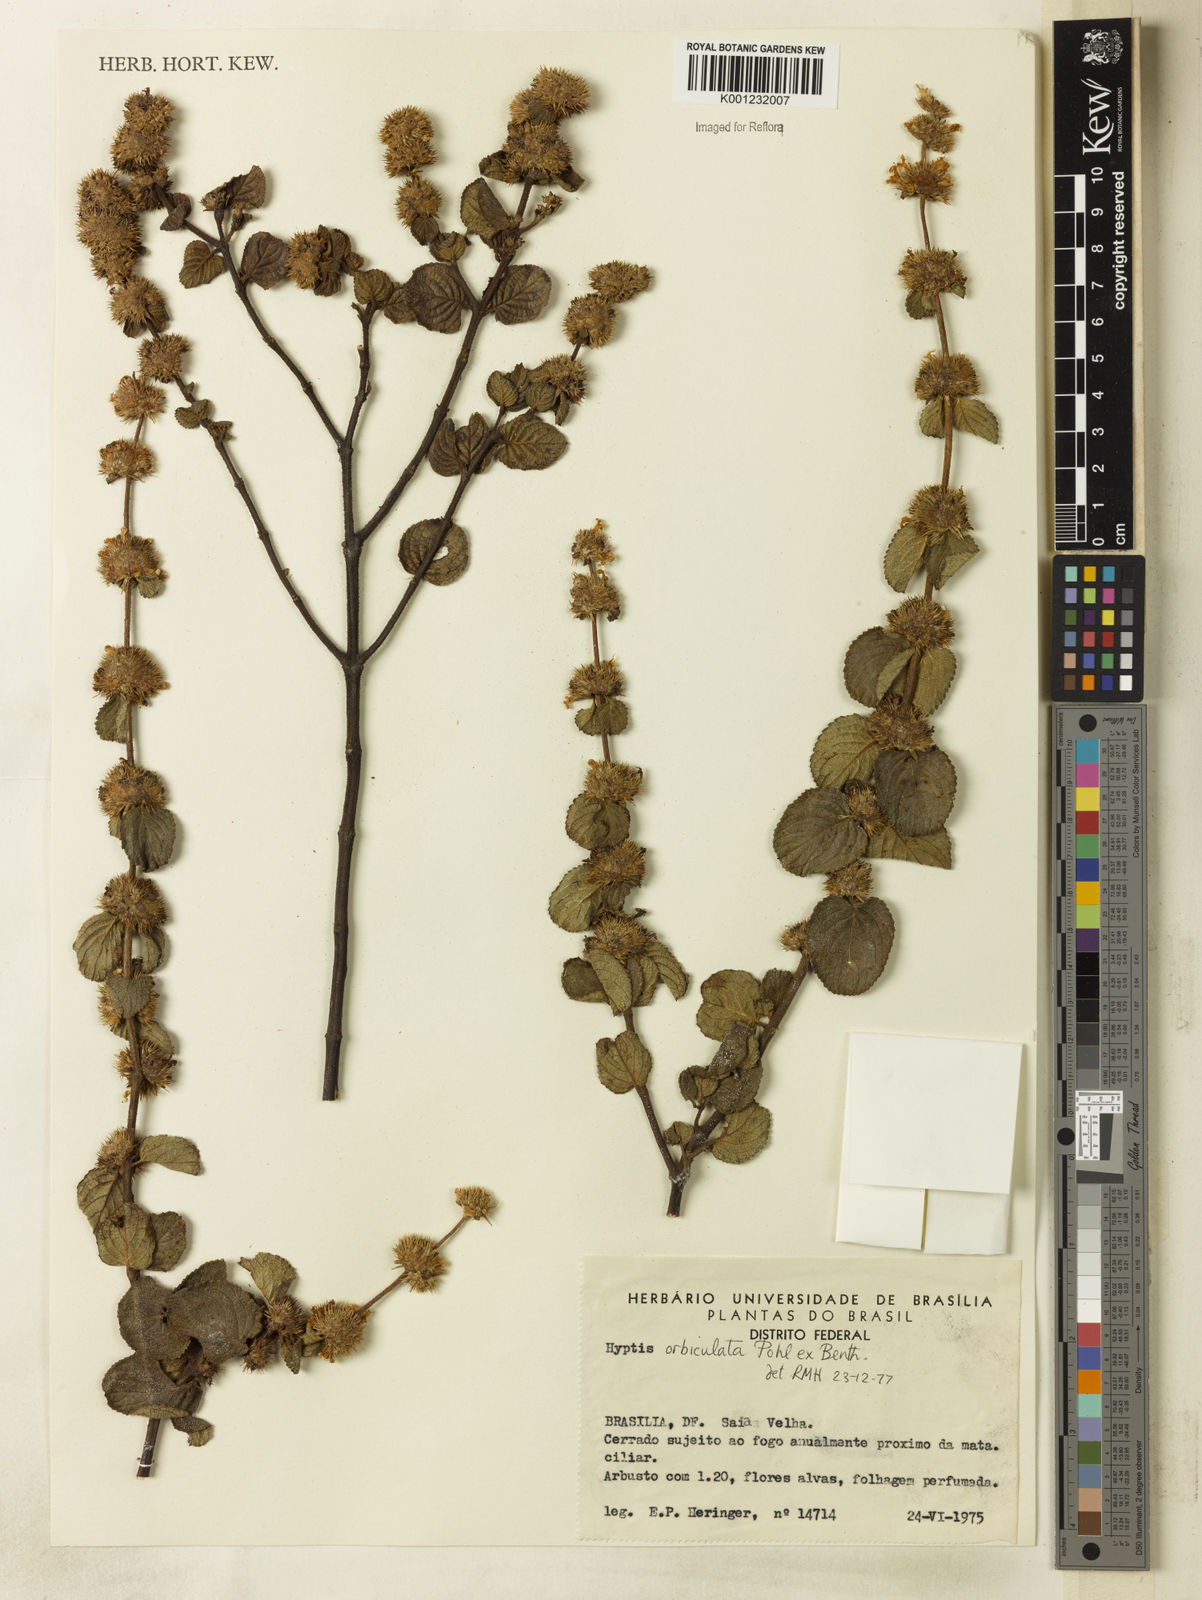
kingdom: Plantae
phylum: Tracheophyta
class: Magnoliopsida
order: Lamiales
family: Lamiaceae
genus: Hyptis
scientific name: Hyptis orbiculata
